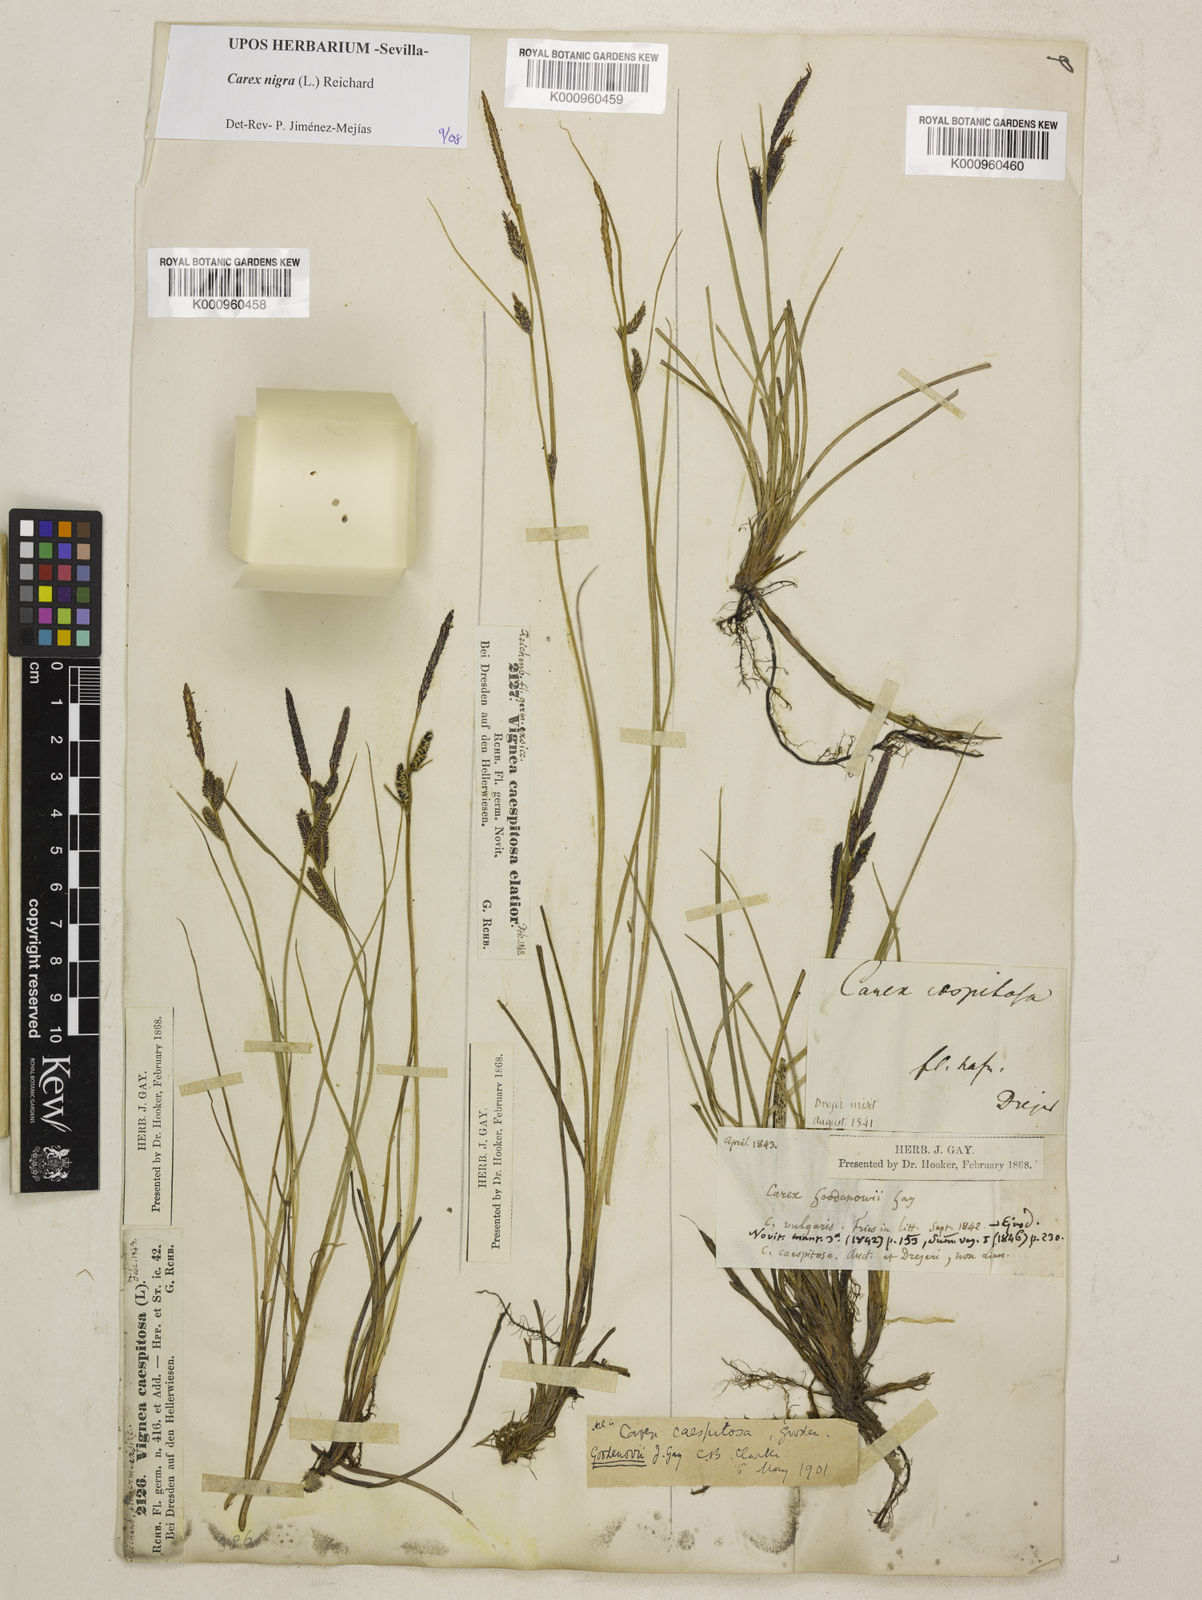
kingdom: Plantae
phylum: Tracheophyta
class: Liliopsida
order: Poales
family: Cyperaceae
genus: Carex
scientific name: Carex nigra
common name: Common sedge
